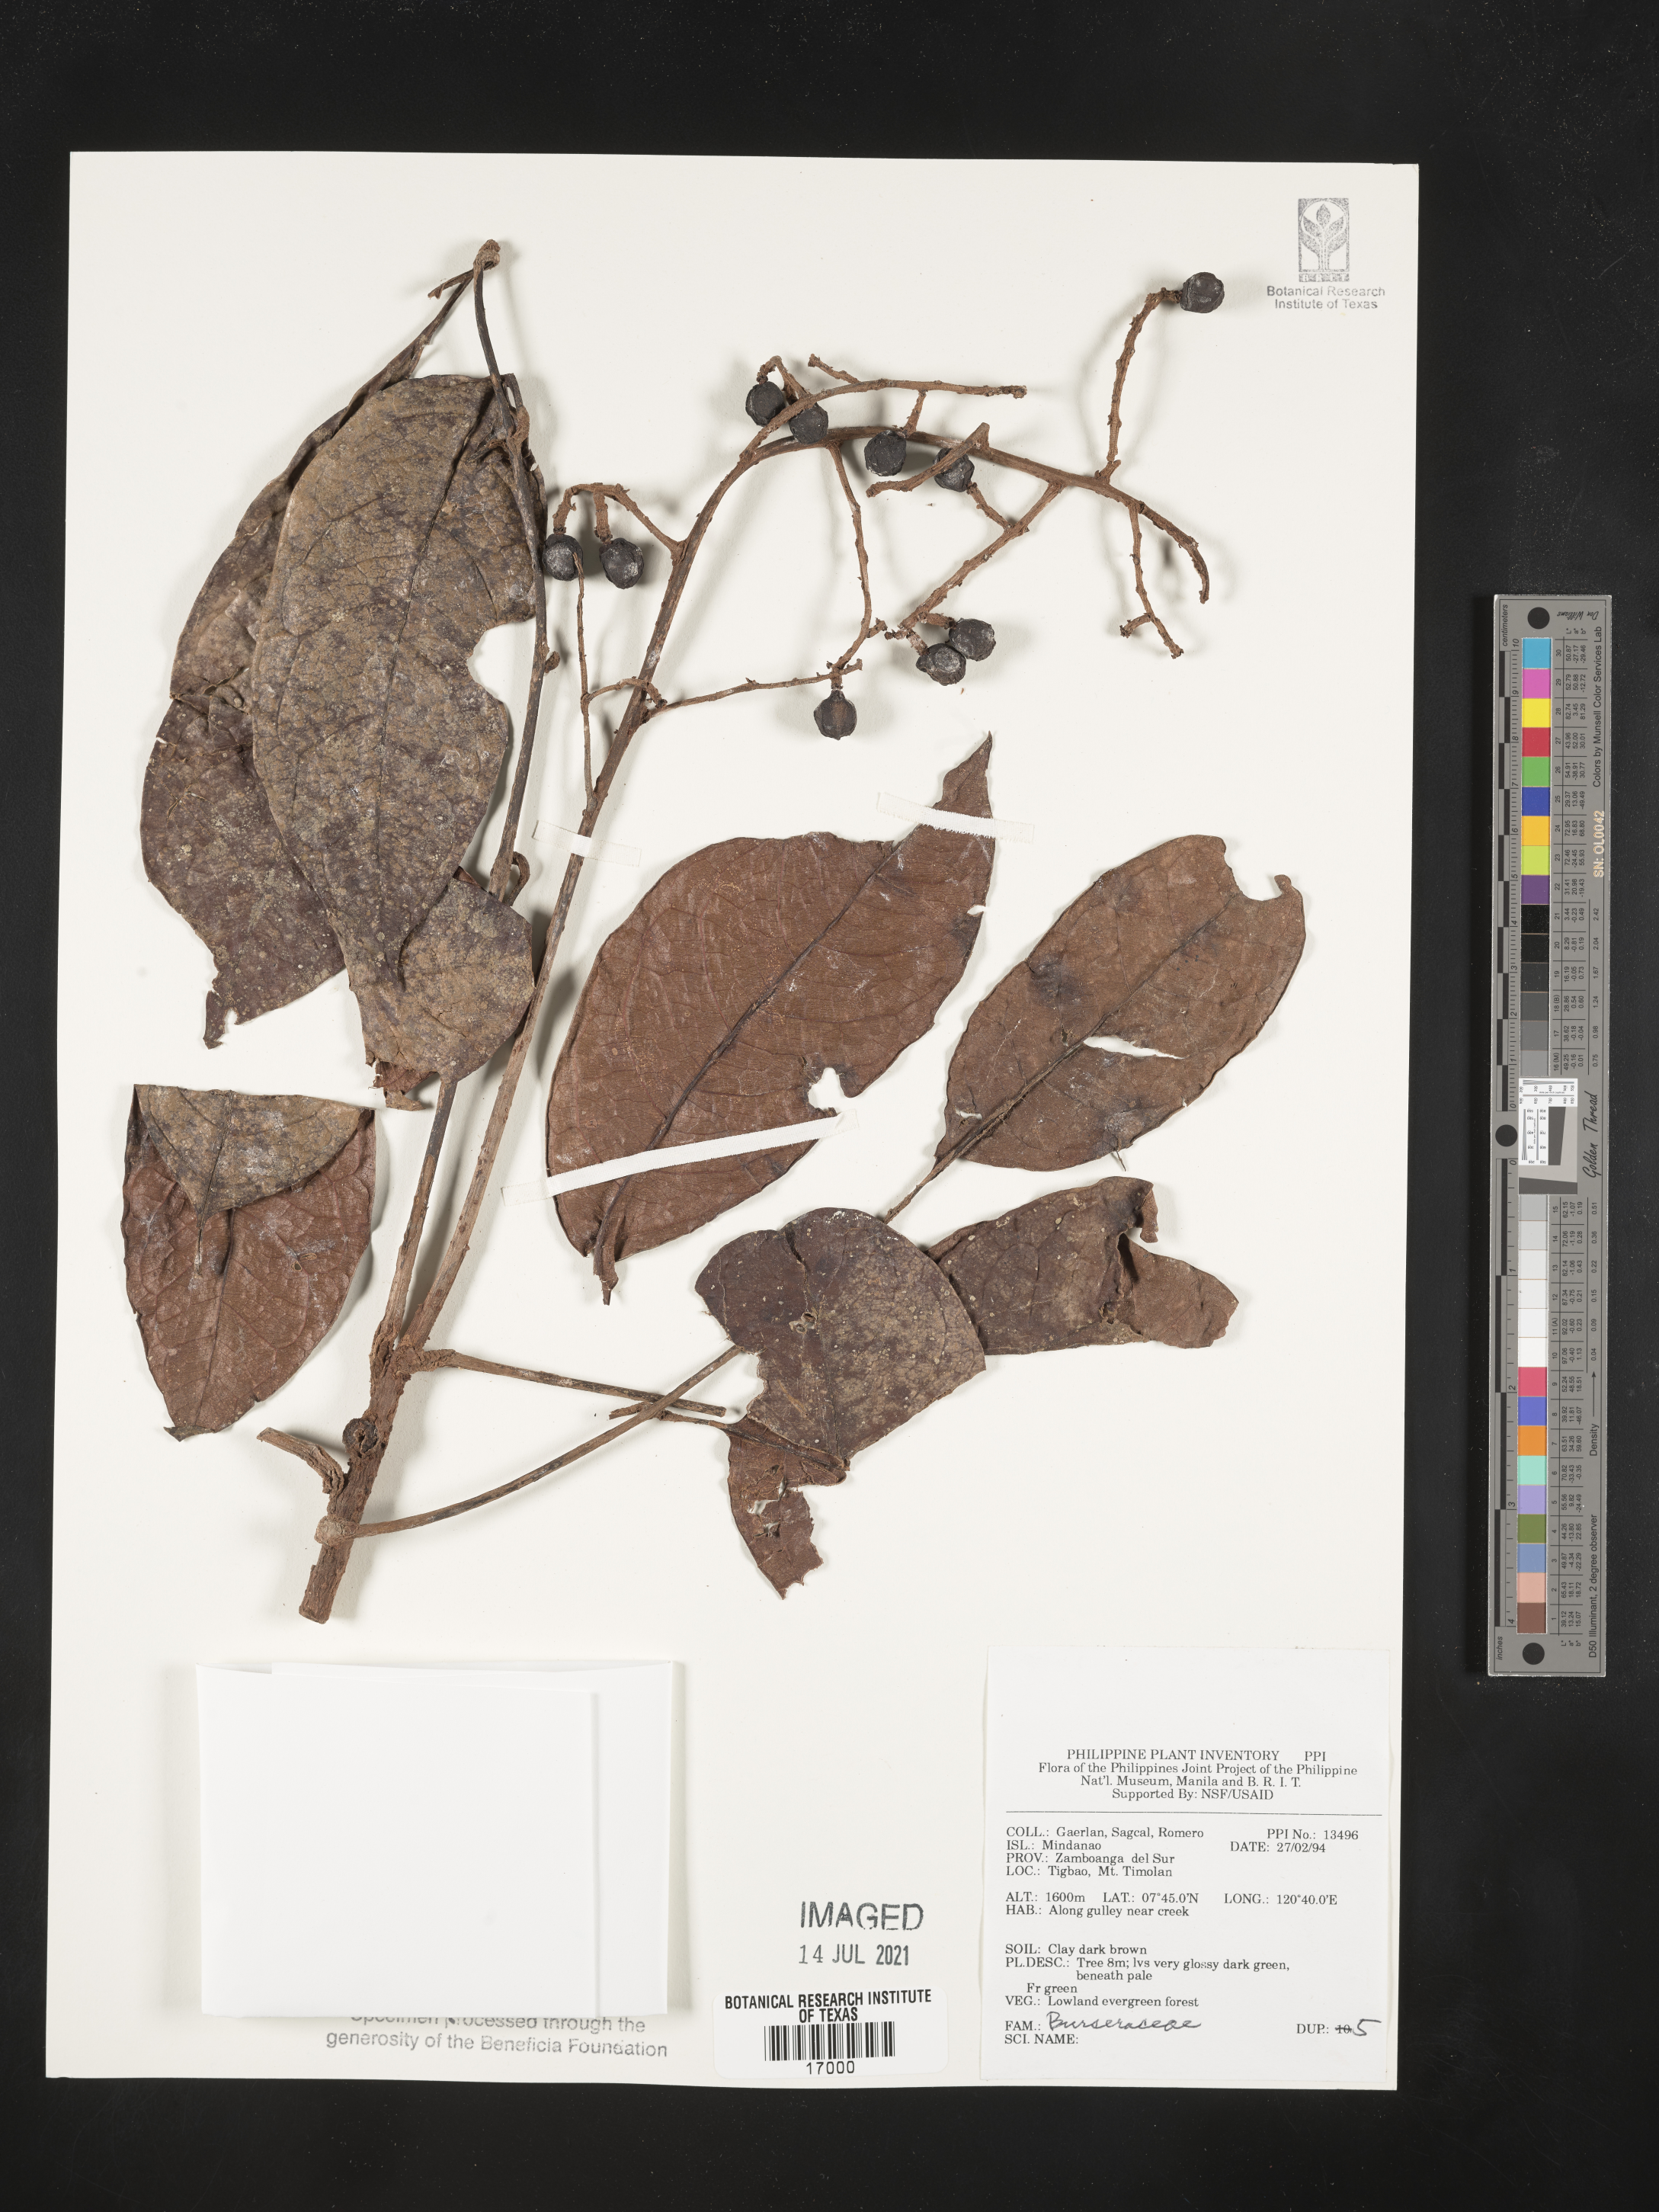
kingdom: Plantae
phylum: Tracheophyta
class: Magnoliopsida
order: Sapindales
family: Burseraceae
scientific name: Burseraceae
